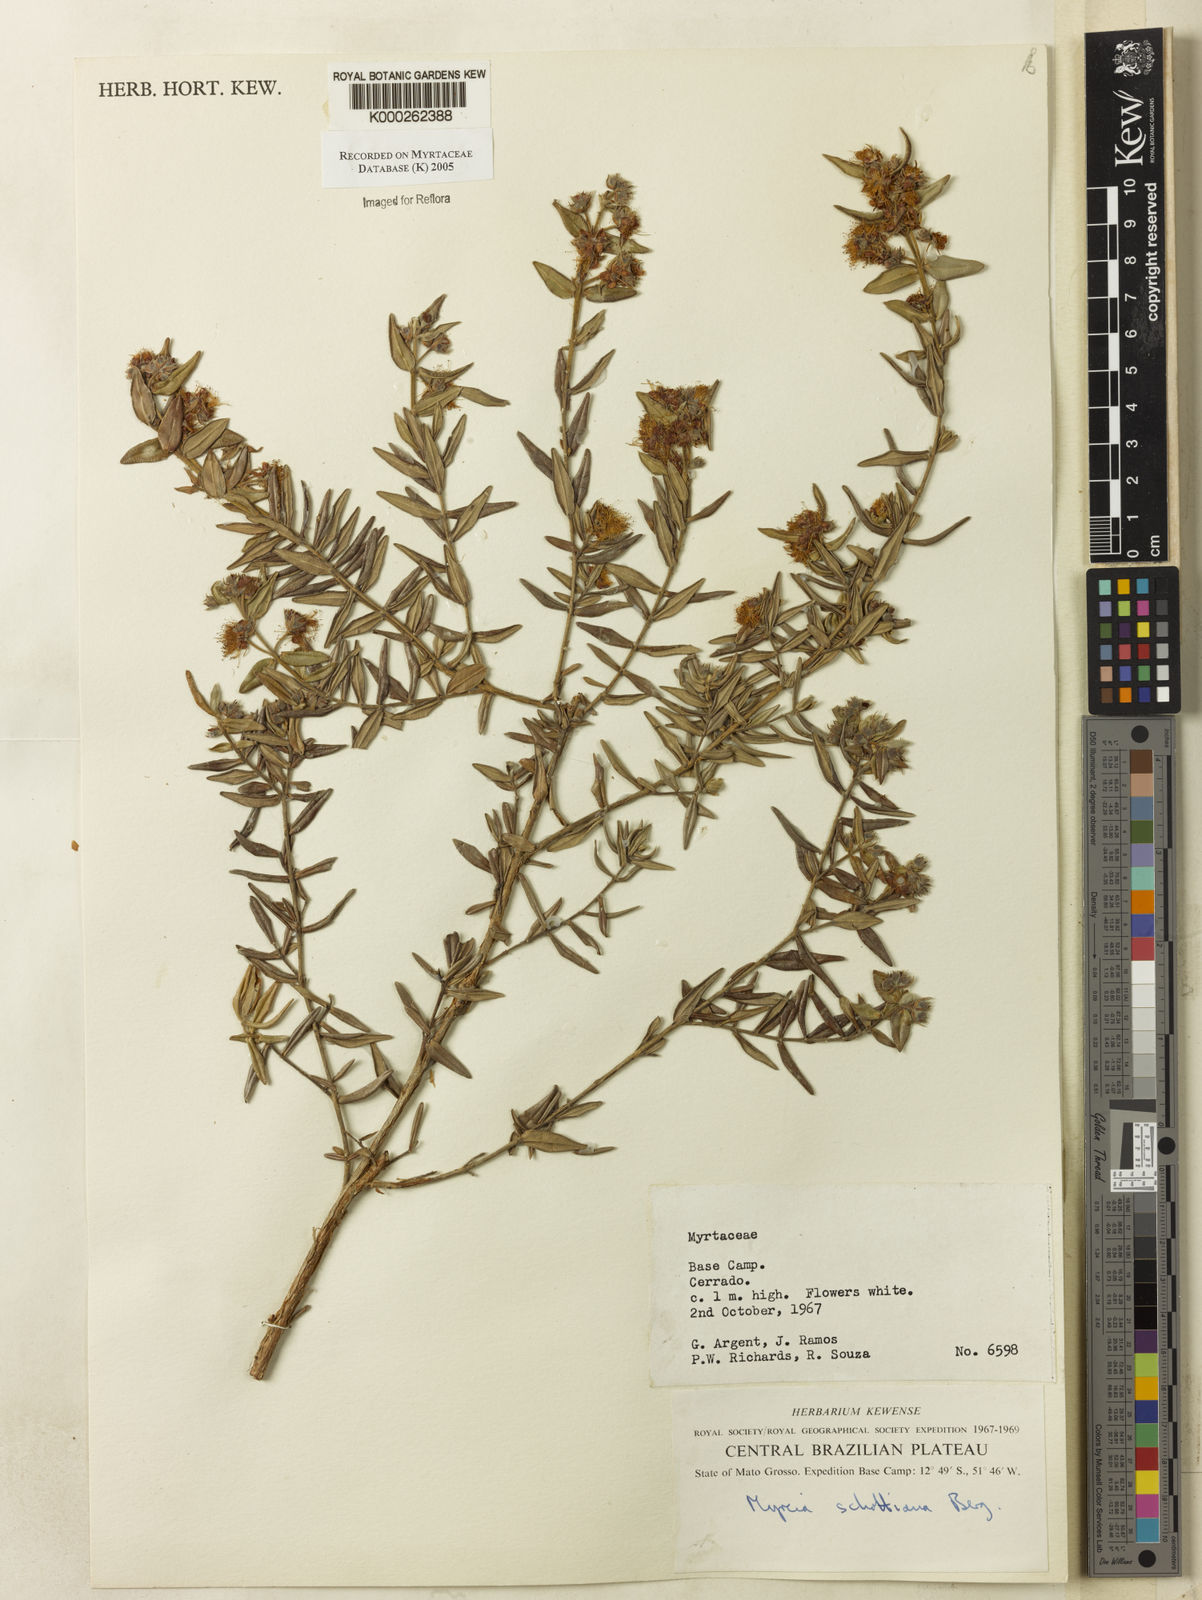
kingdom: Plantae
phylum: Tracheophyta
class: Magnoliopsida
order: Myrtales
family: Myrtaceae
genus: Myrcia
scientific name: Myrcia schottiana
